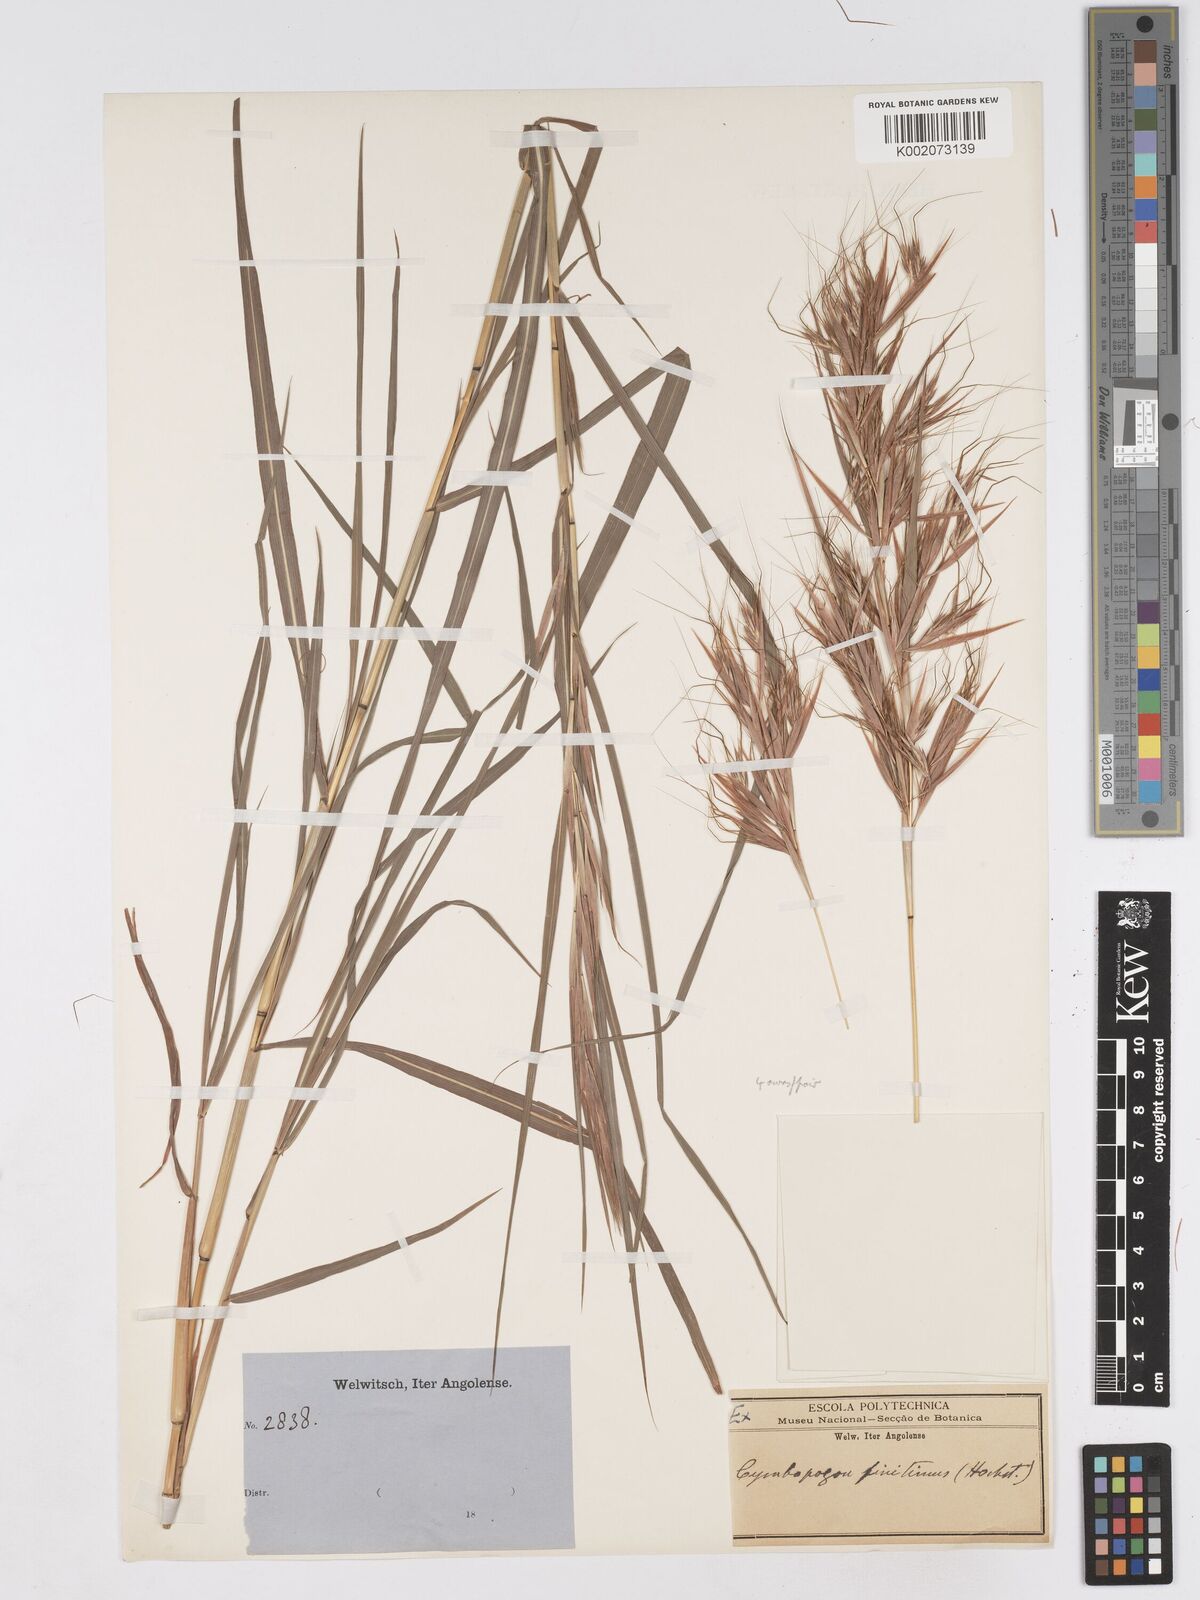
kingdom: Plantae
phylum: Tracheophyta
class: Liliopsida
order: Poales
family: Poaceae
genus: Hyparrhenia
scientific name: Hyparrhenia finitima
